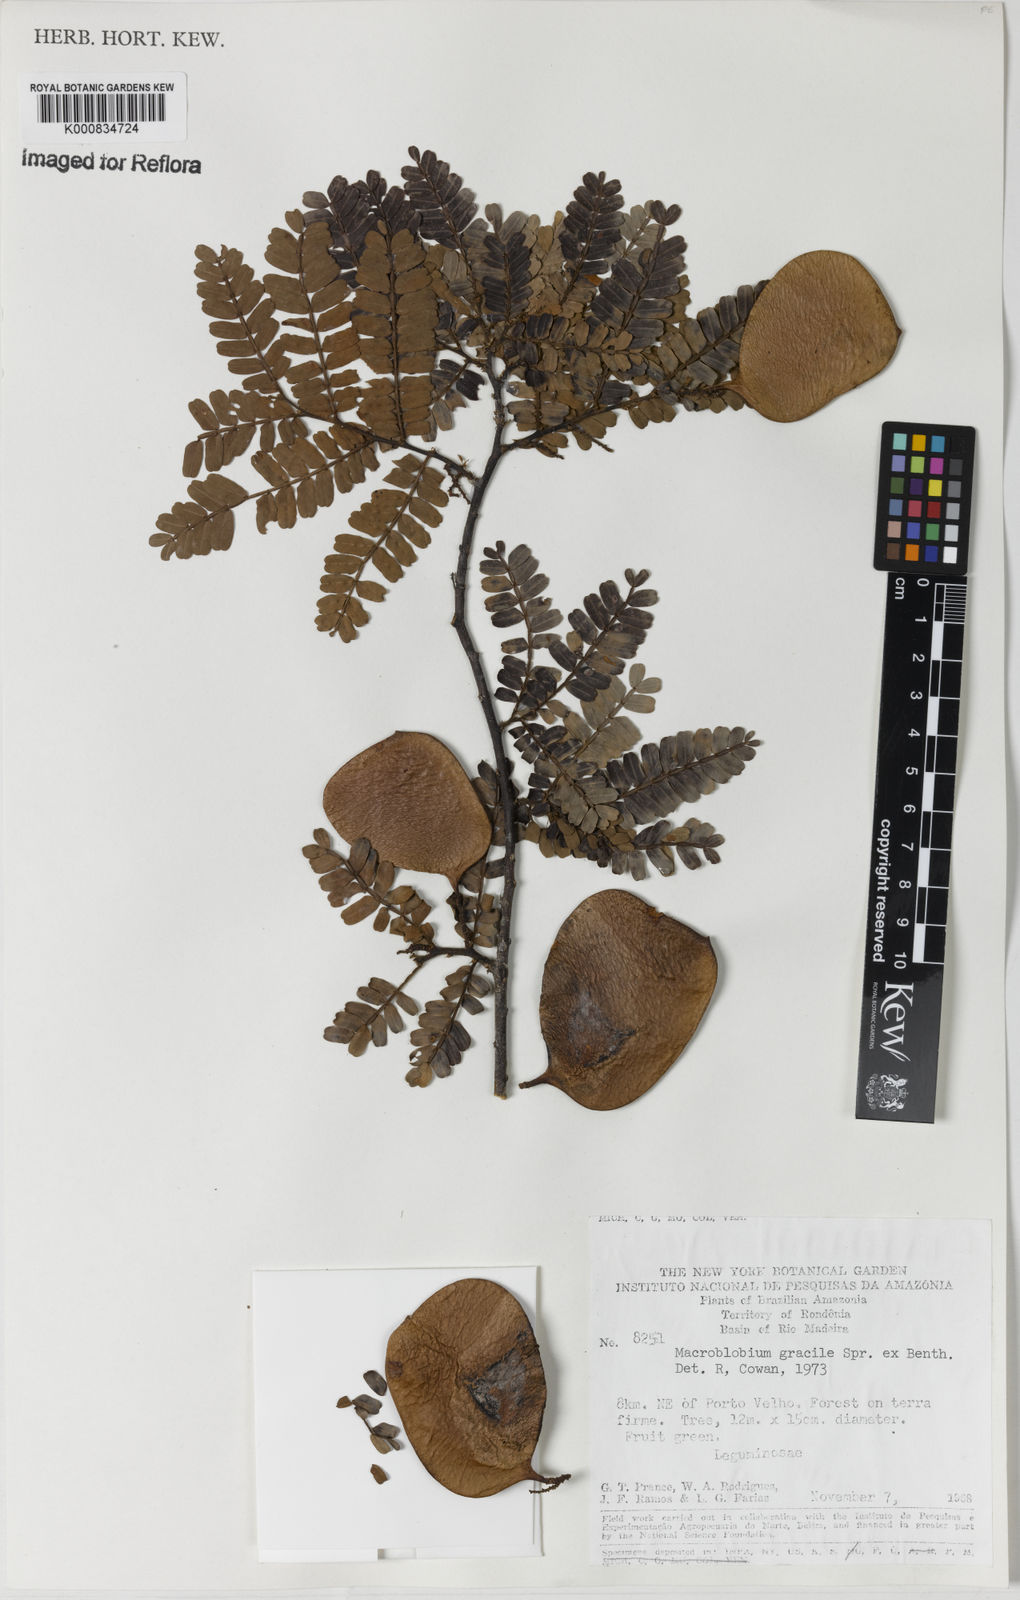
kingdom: Plantae
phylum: Tracheophyta
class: Magnoliopsida
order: Fabales
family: Fabaceae
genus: Macrolobium
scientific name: Macrolobium
